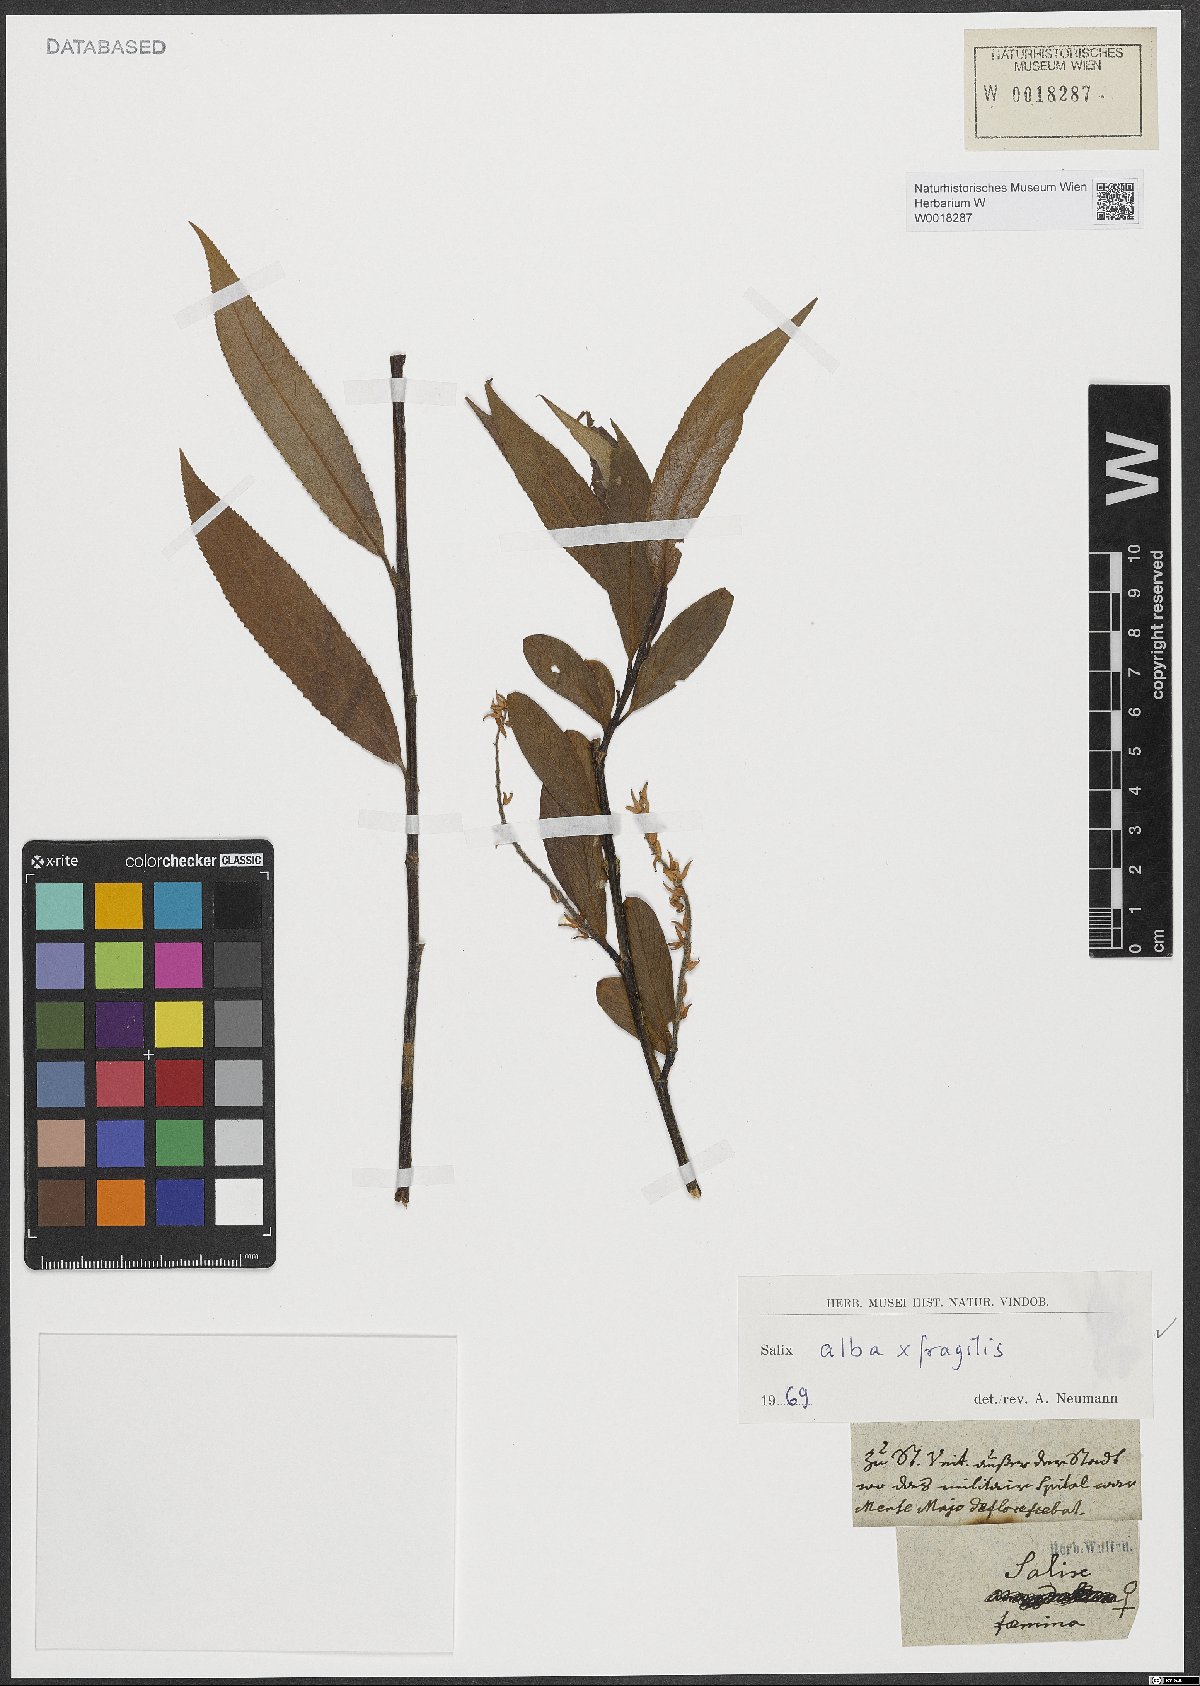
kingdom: Plantae
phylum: Tracheophyta
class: Magnoliopsida
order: Malpighiales
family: Salicaceae
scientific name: Salicaceae
